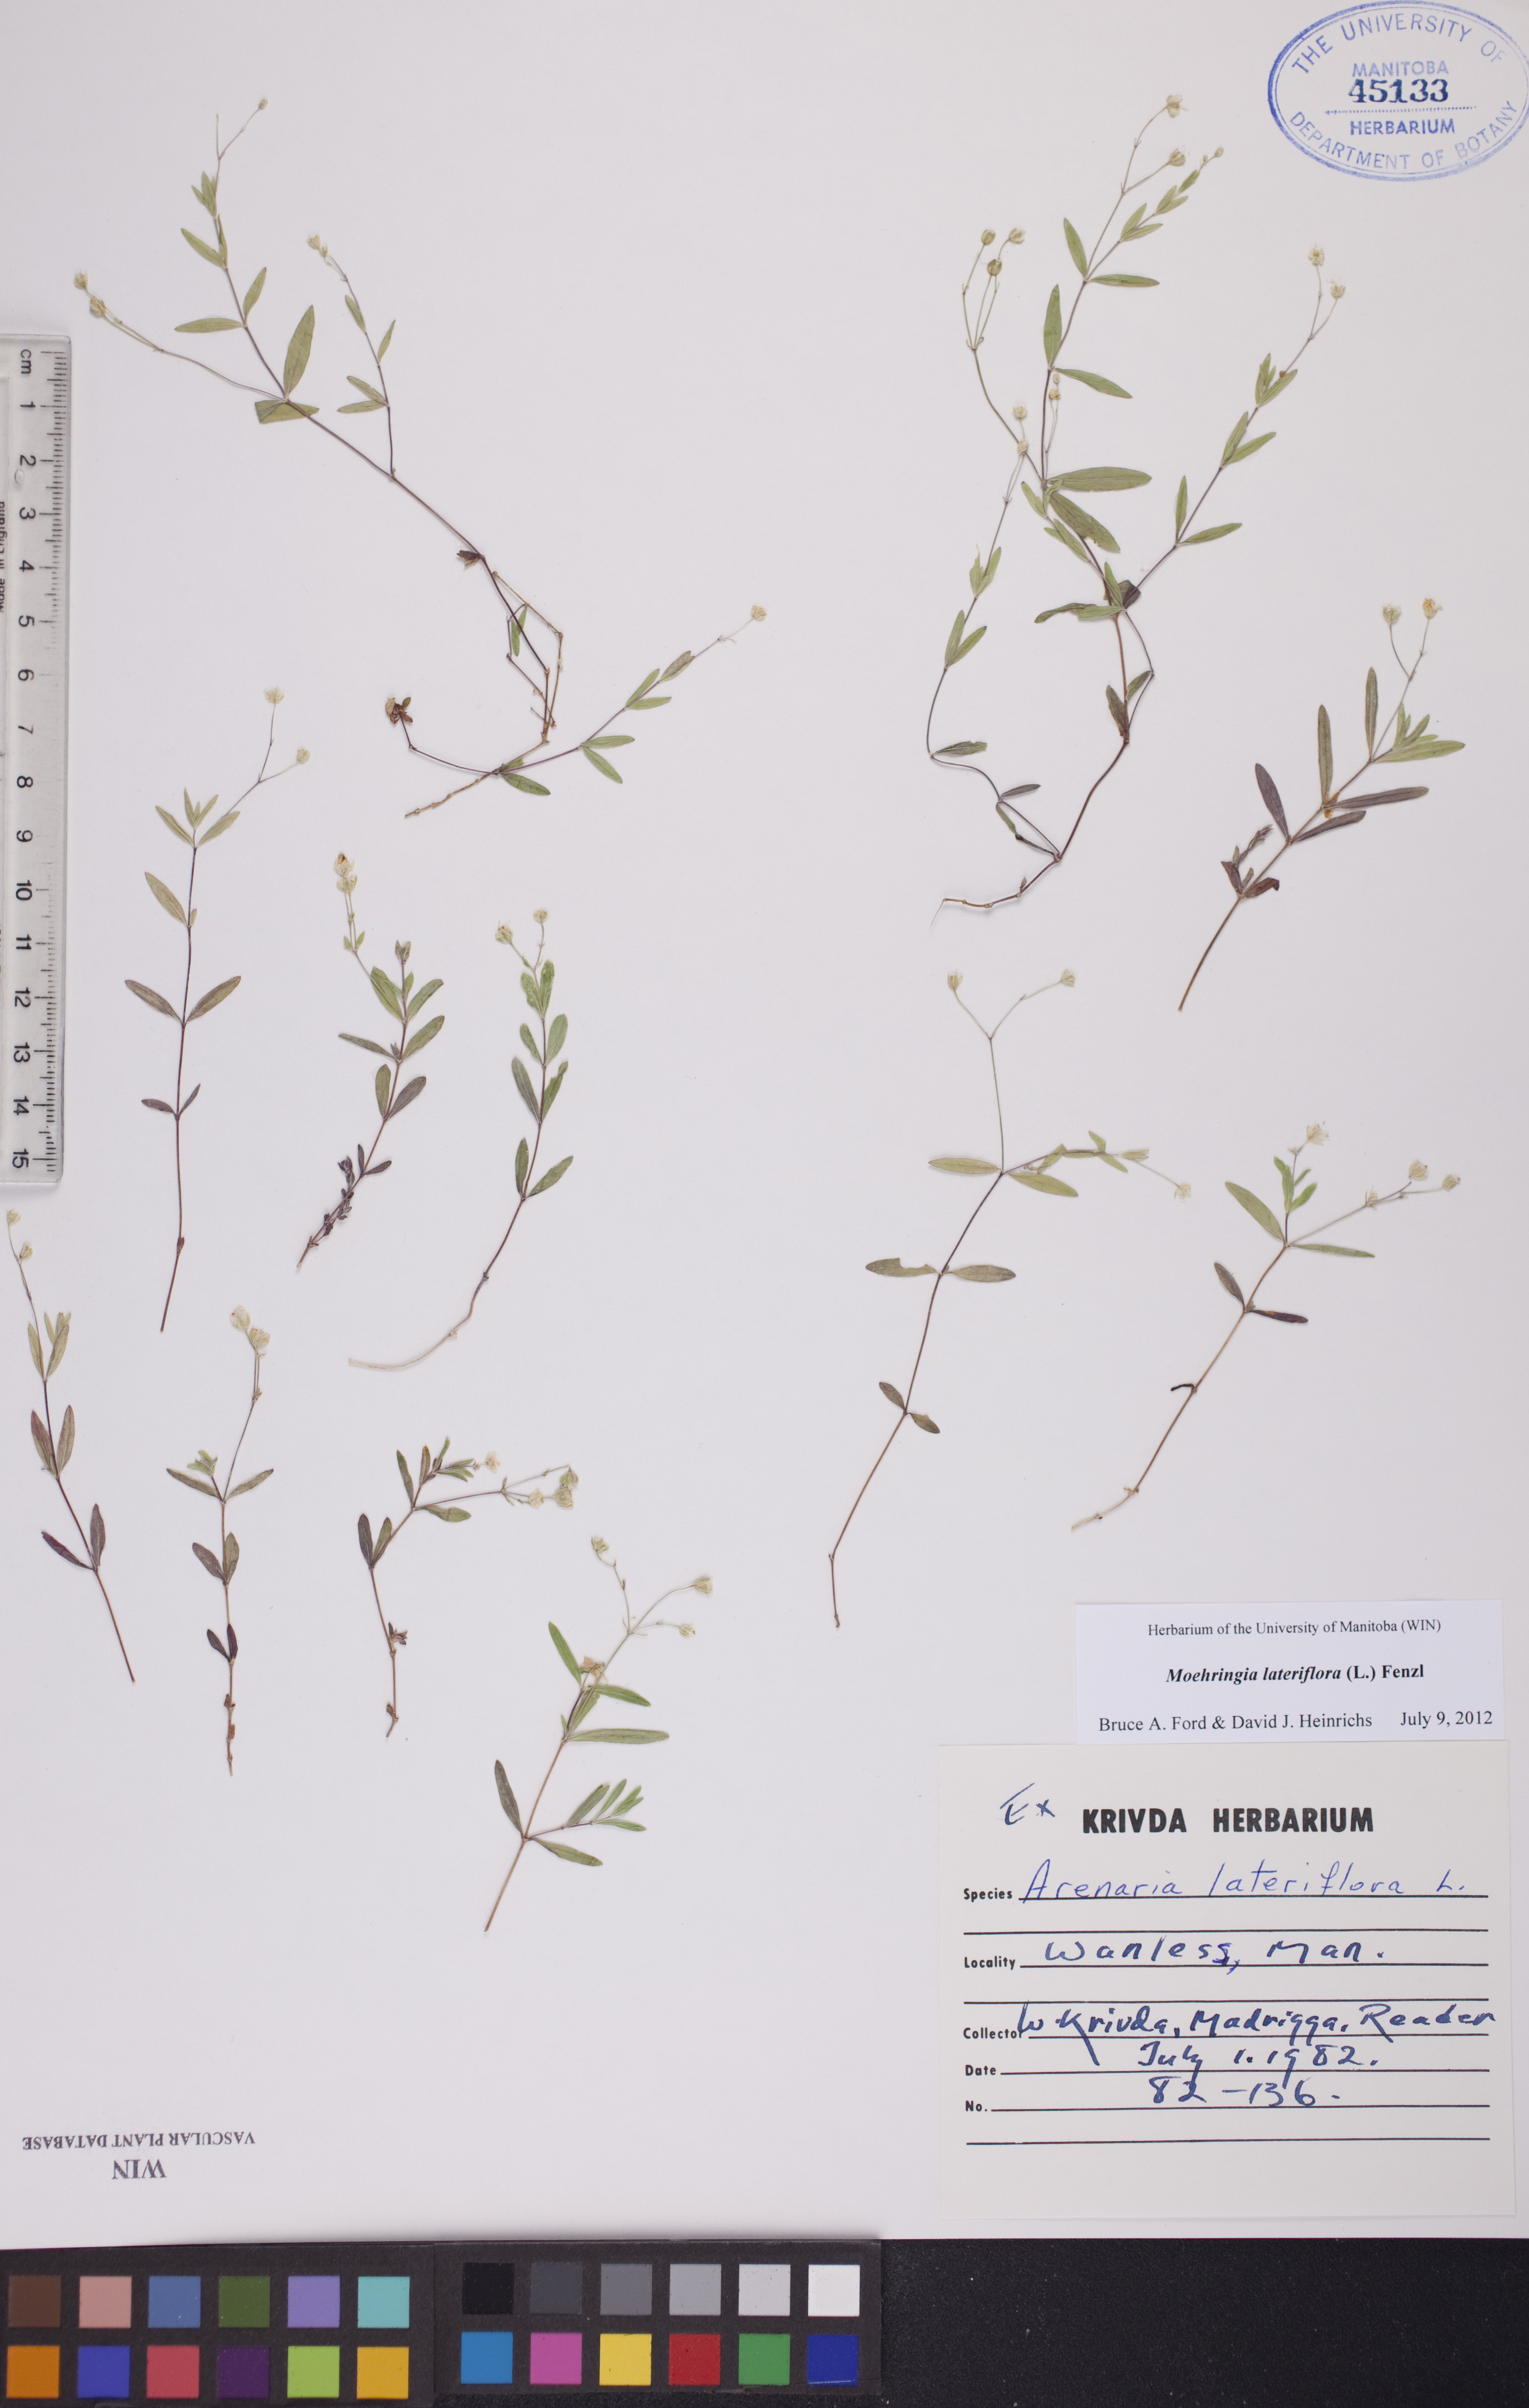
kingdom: Plantae
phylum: Tracheophyta
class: Magnoliopsida
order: Caryophyllales
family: Caryophyllaceae
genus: Moehringia
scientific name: Moehringia lateriflora
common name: Blunt-leaved sandwort
